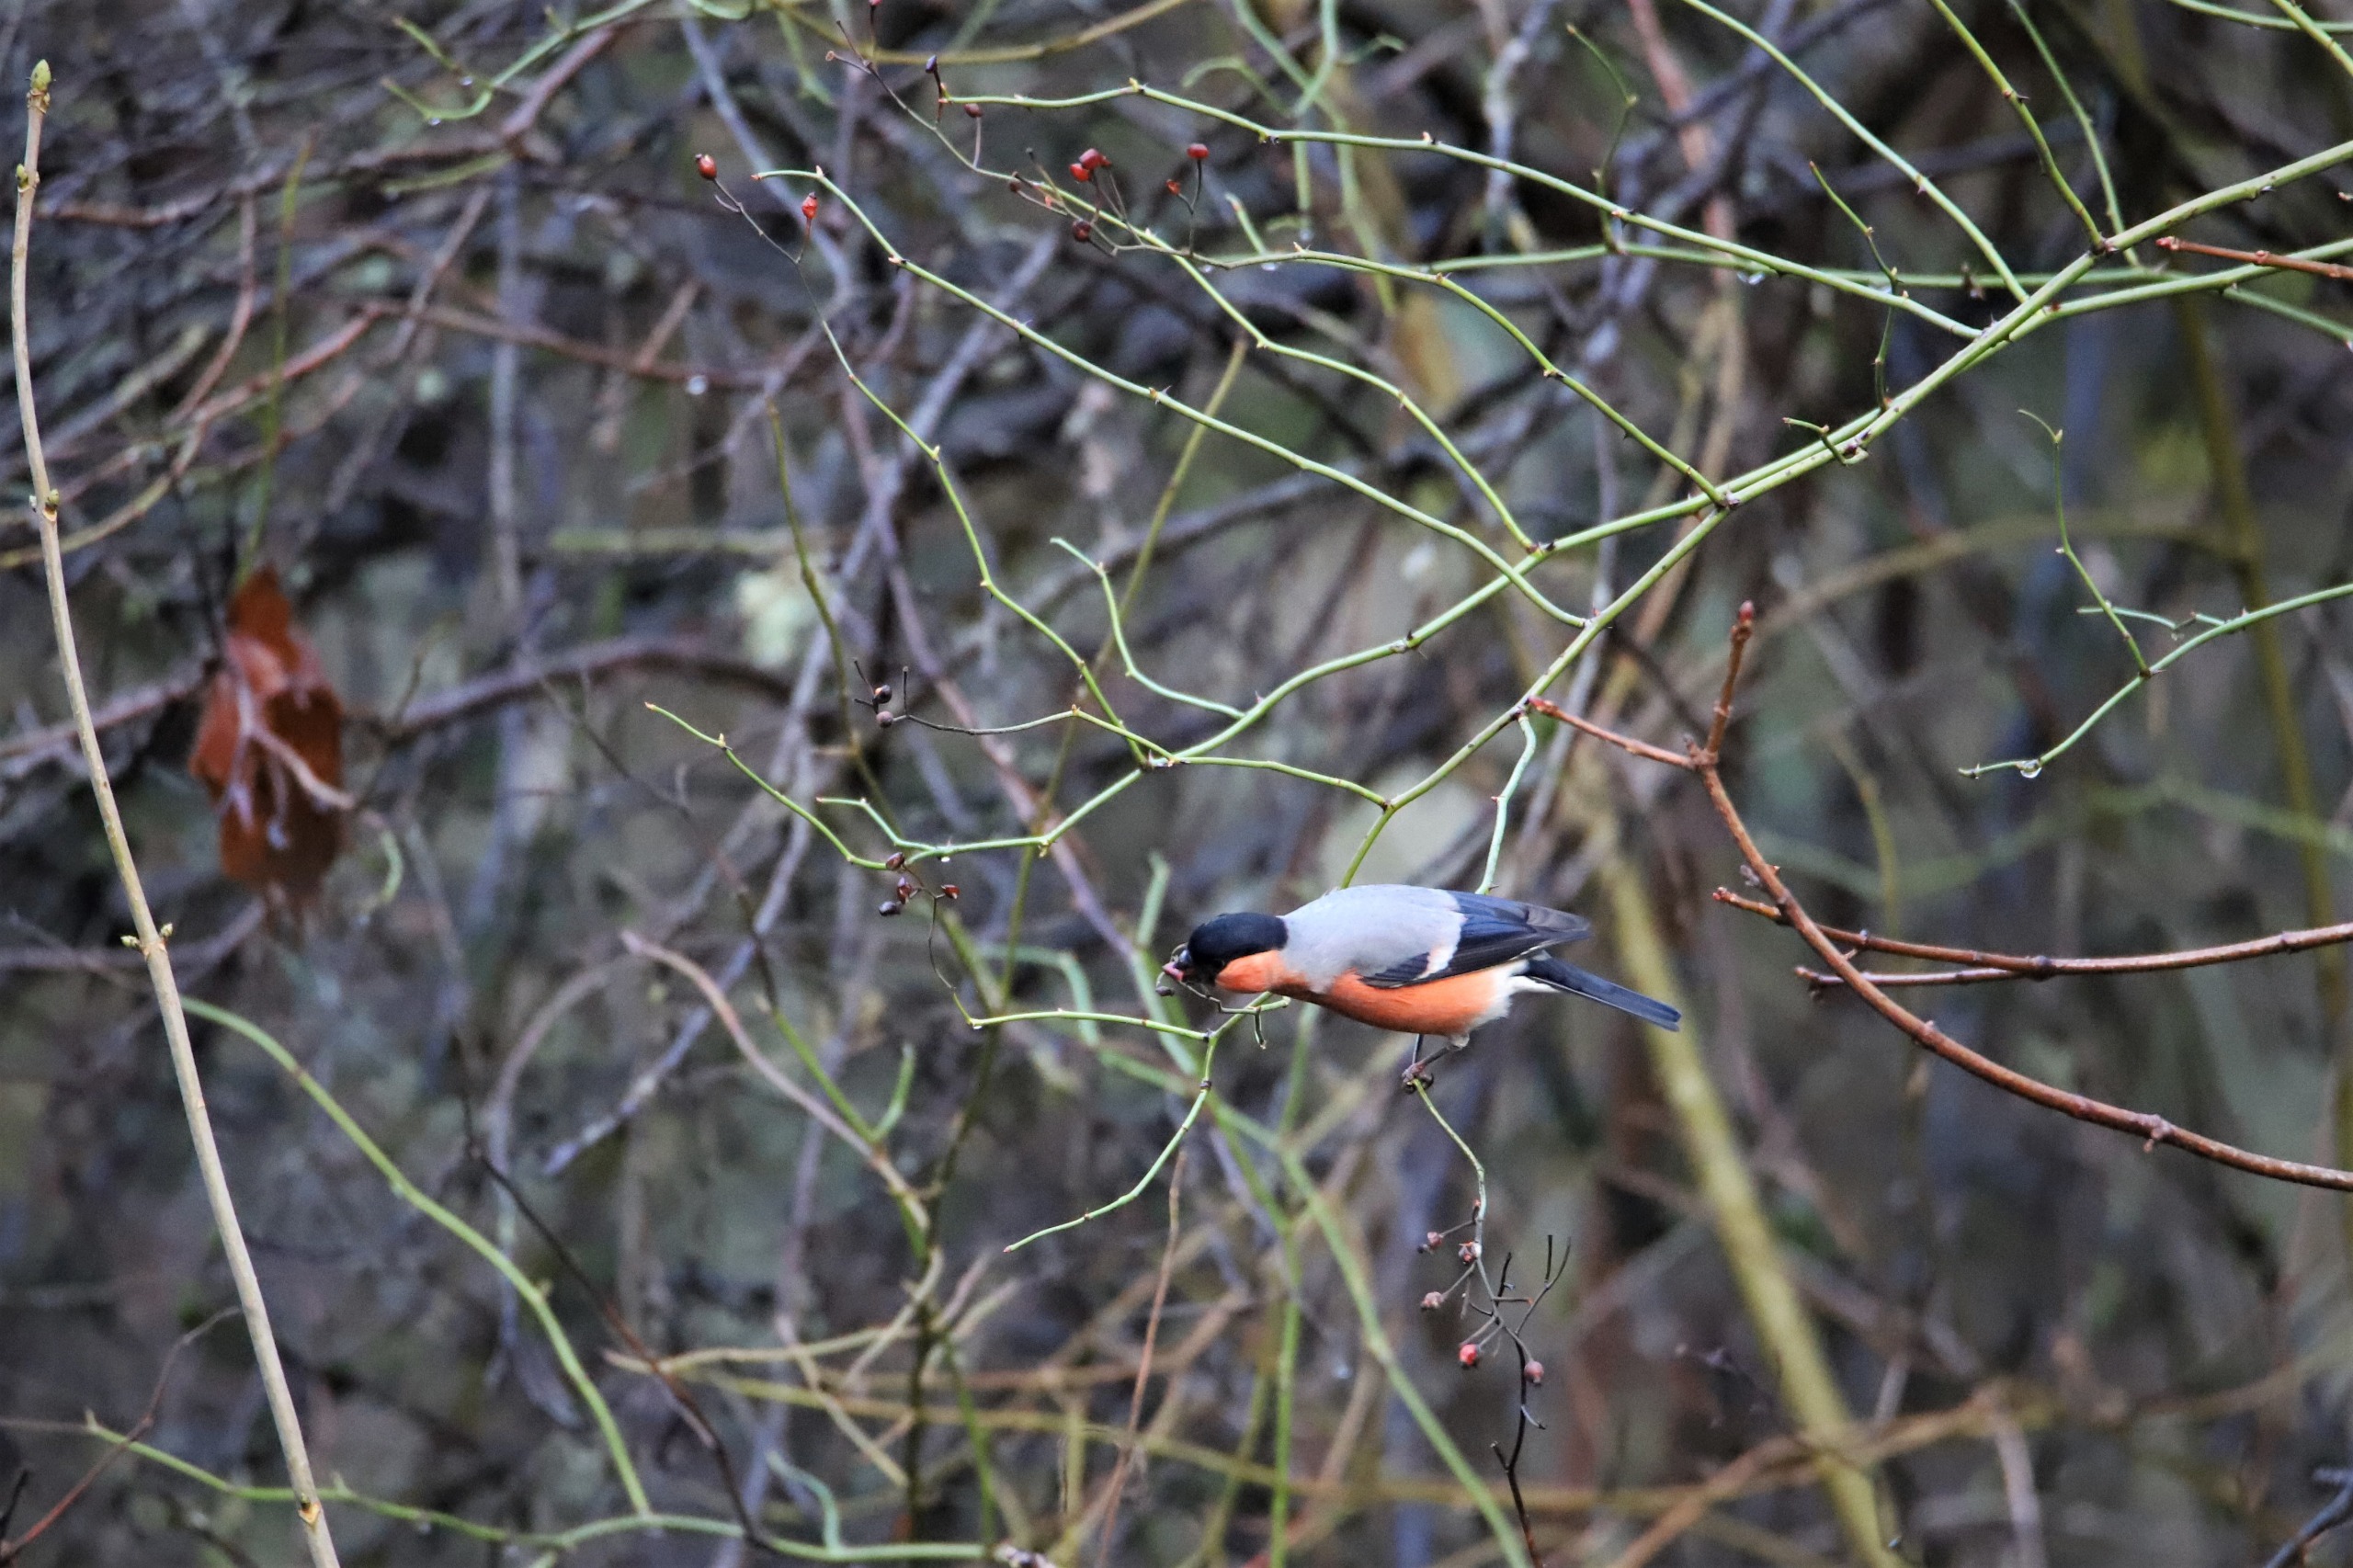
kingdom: Animalia
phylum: Chordata
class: Aves
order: Passeriformes
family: Fringillidae
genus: Pyrrhula
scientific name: Pyrrhula pyrrhula
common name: Dompap
